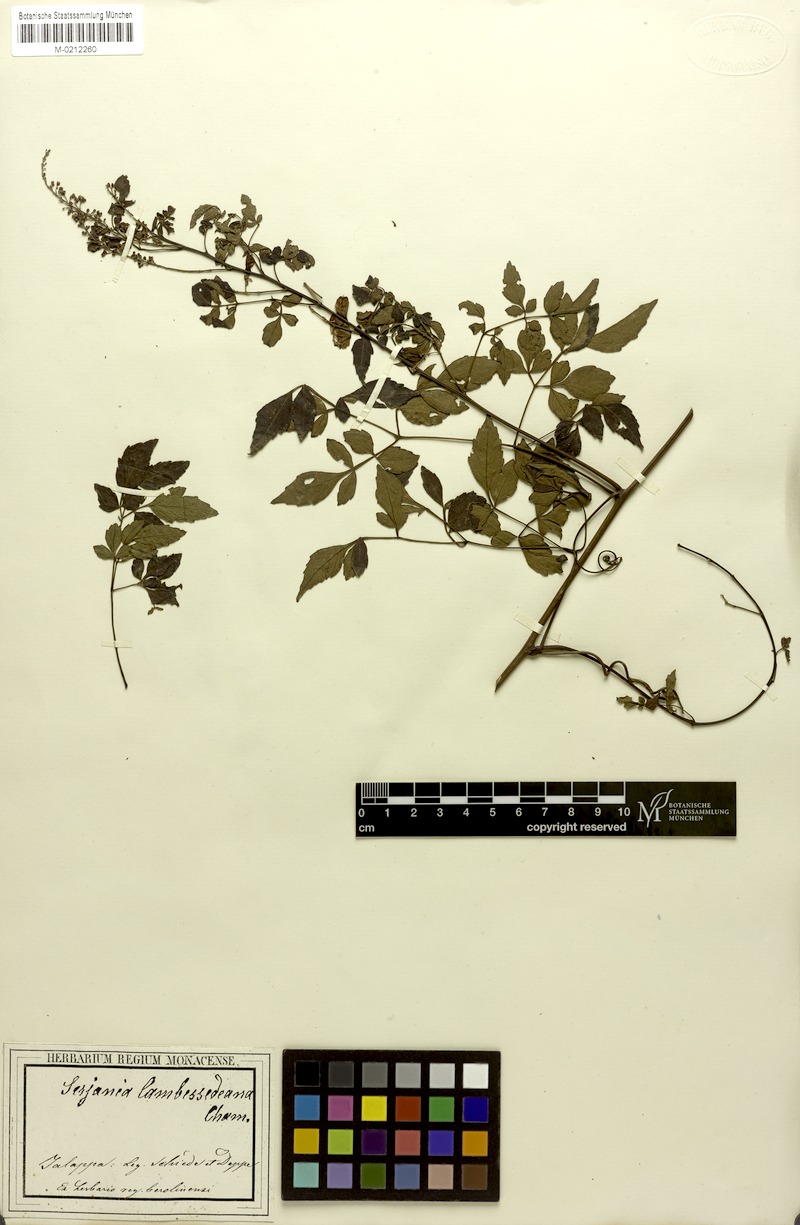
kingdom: Plantae
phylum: Tracheophyta
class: Magnoliopsida
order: Sapindales
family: Sapindaceae
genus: Serjania
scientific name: Serjania adiantoides
